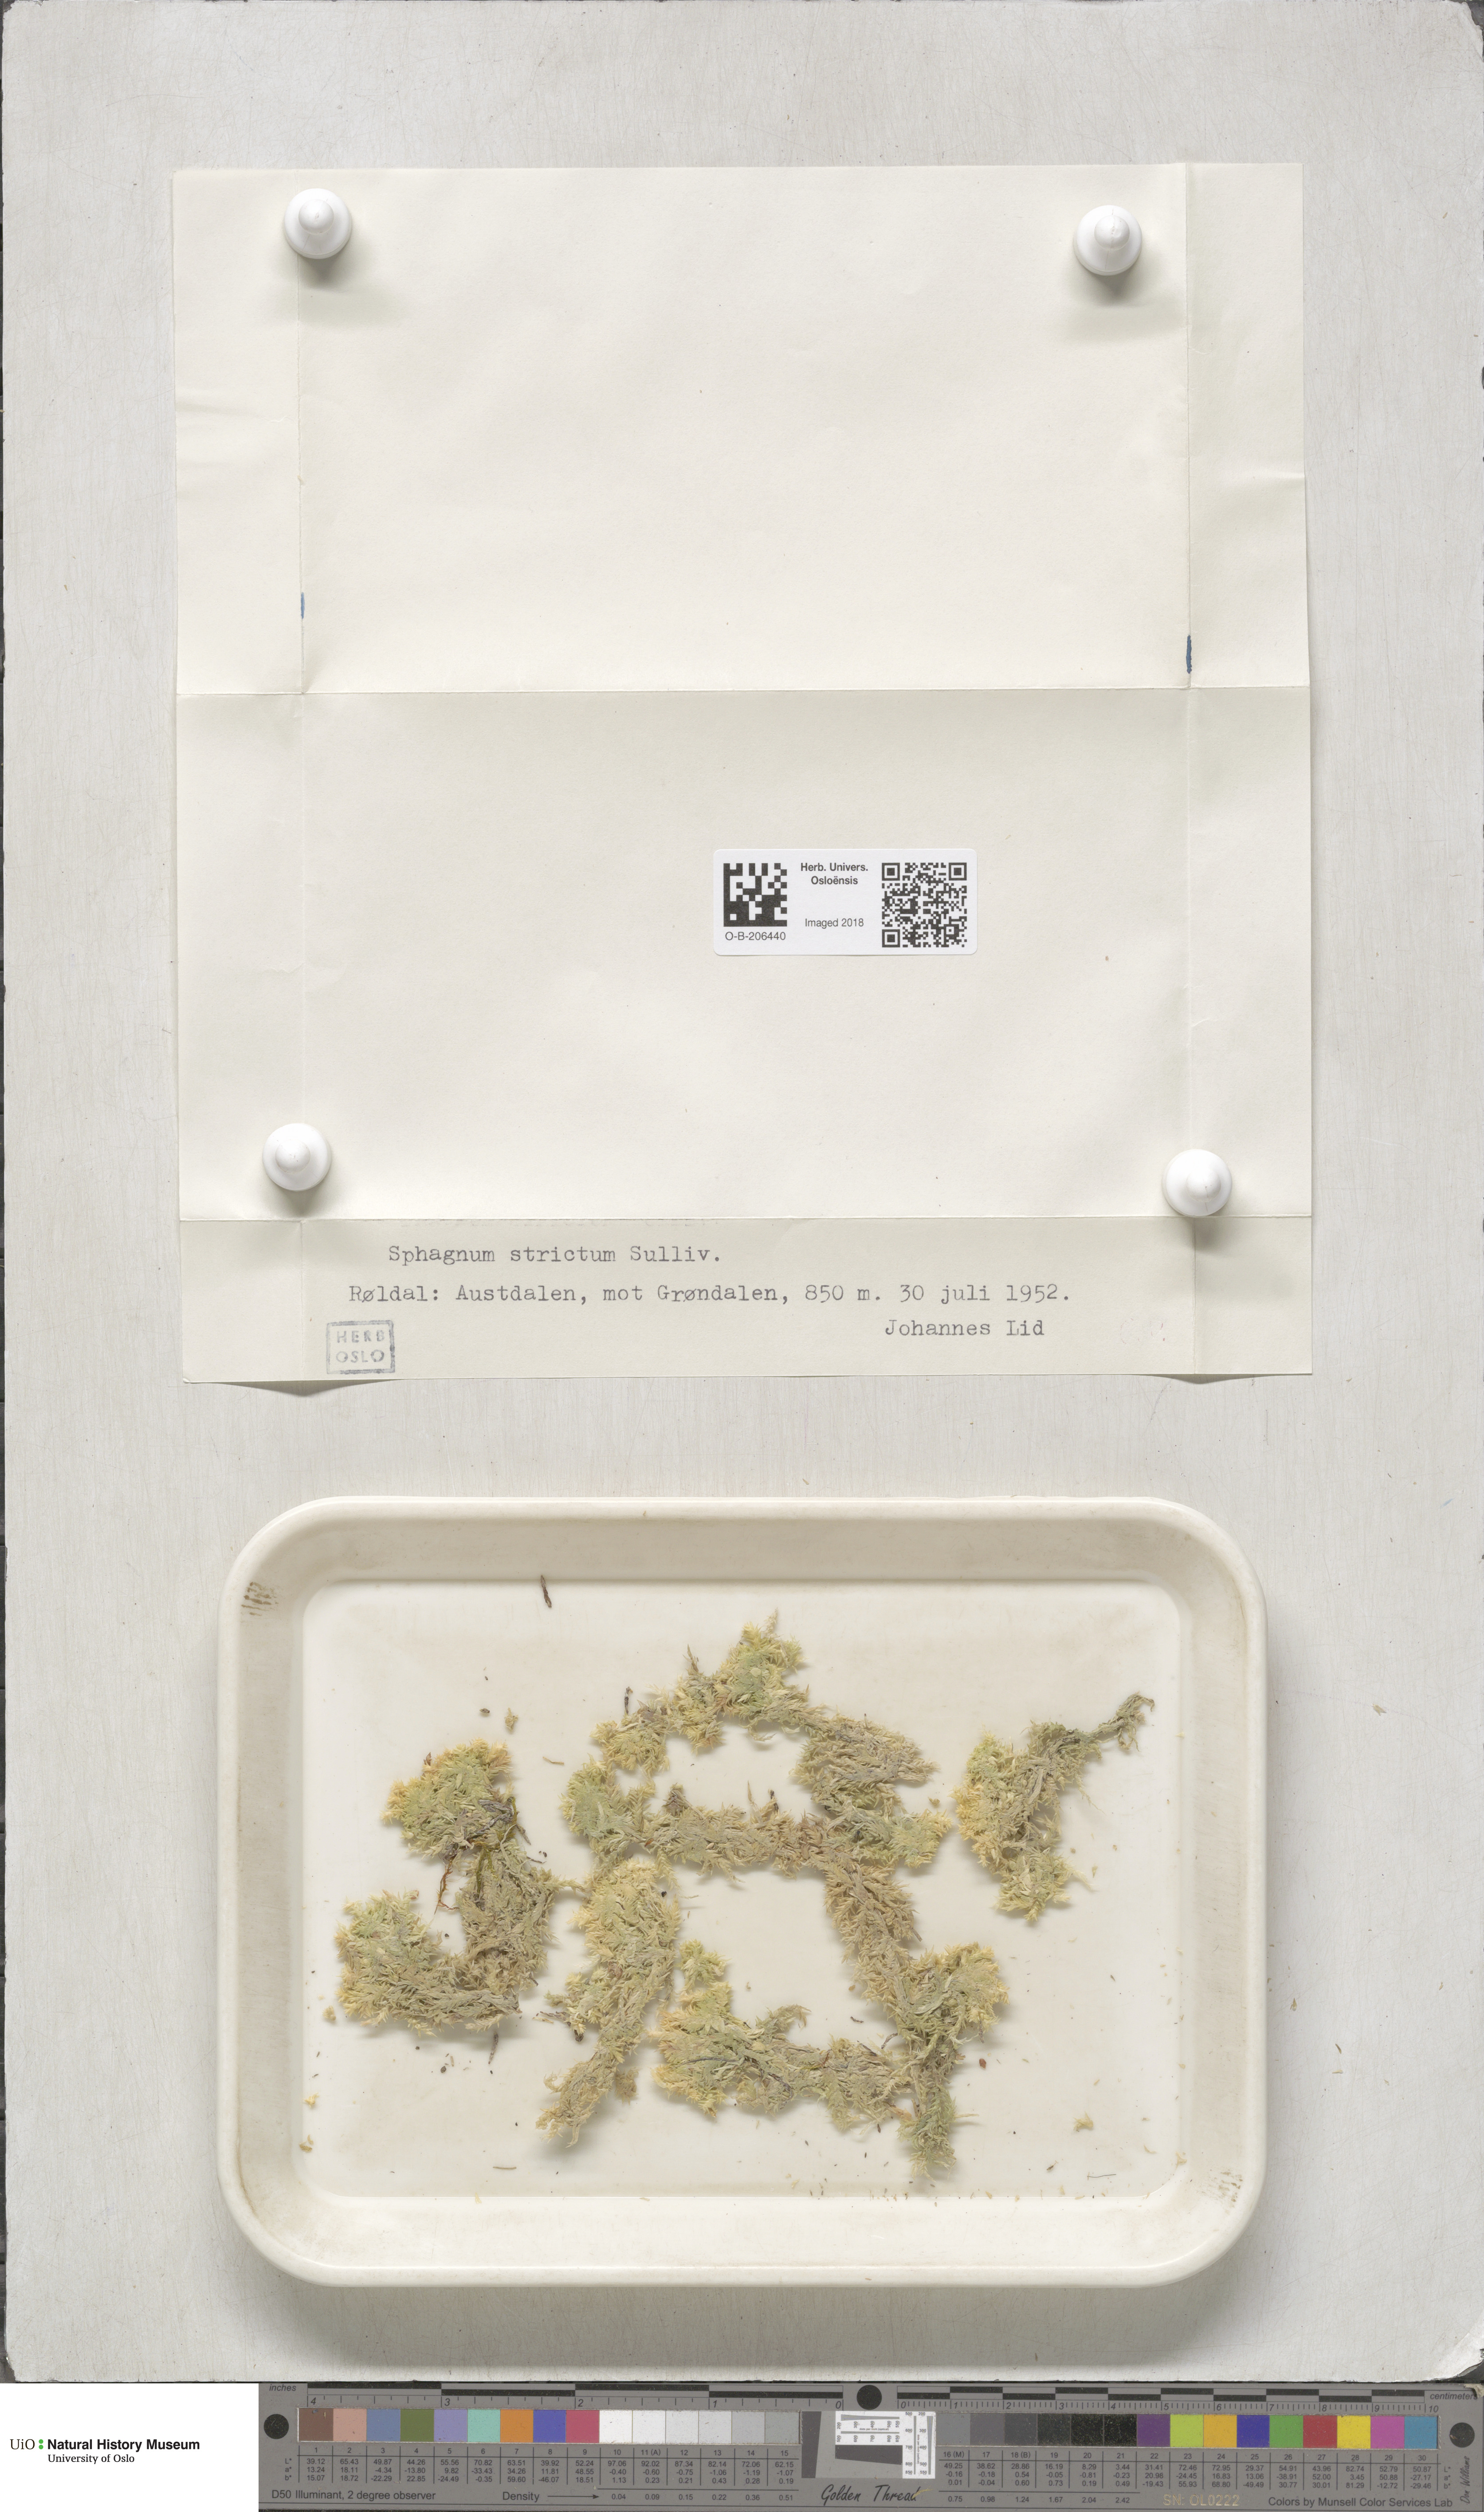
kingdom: Plantae
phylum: Bryophyta
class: Sphagnopsida
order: Sphagnales
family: Sphagnaceae
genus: Sphagnum
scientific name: Sphagnum strictum
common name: Pale bog-moss
